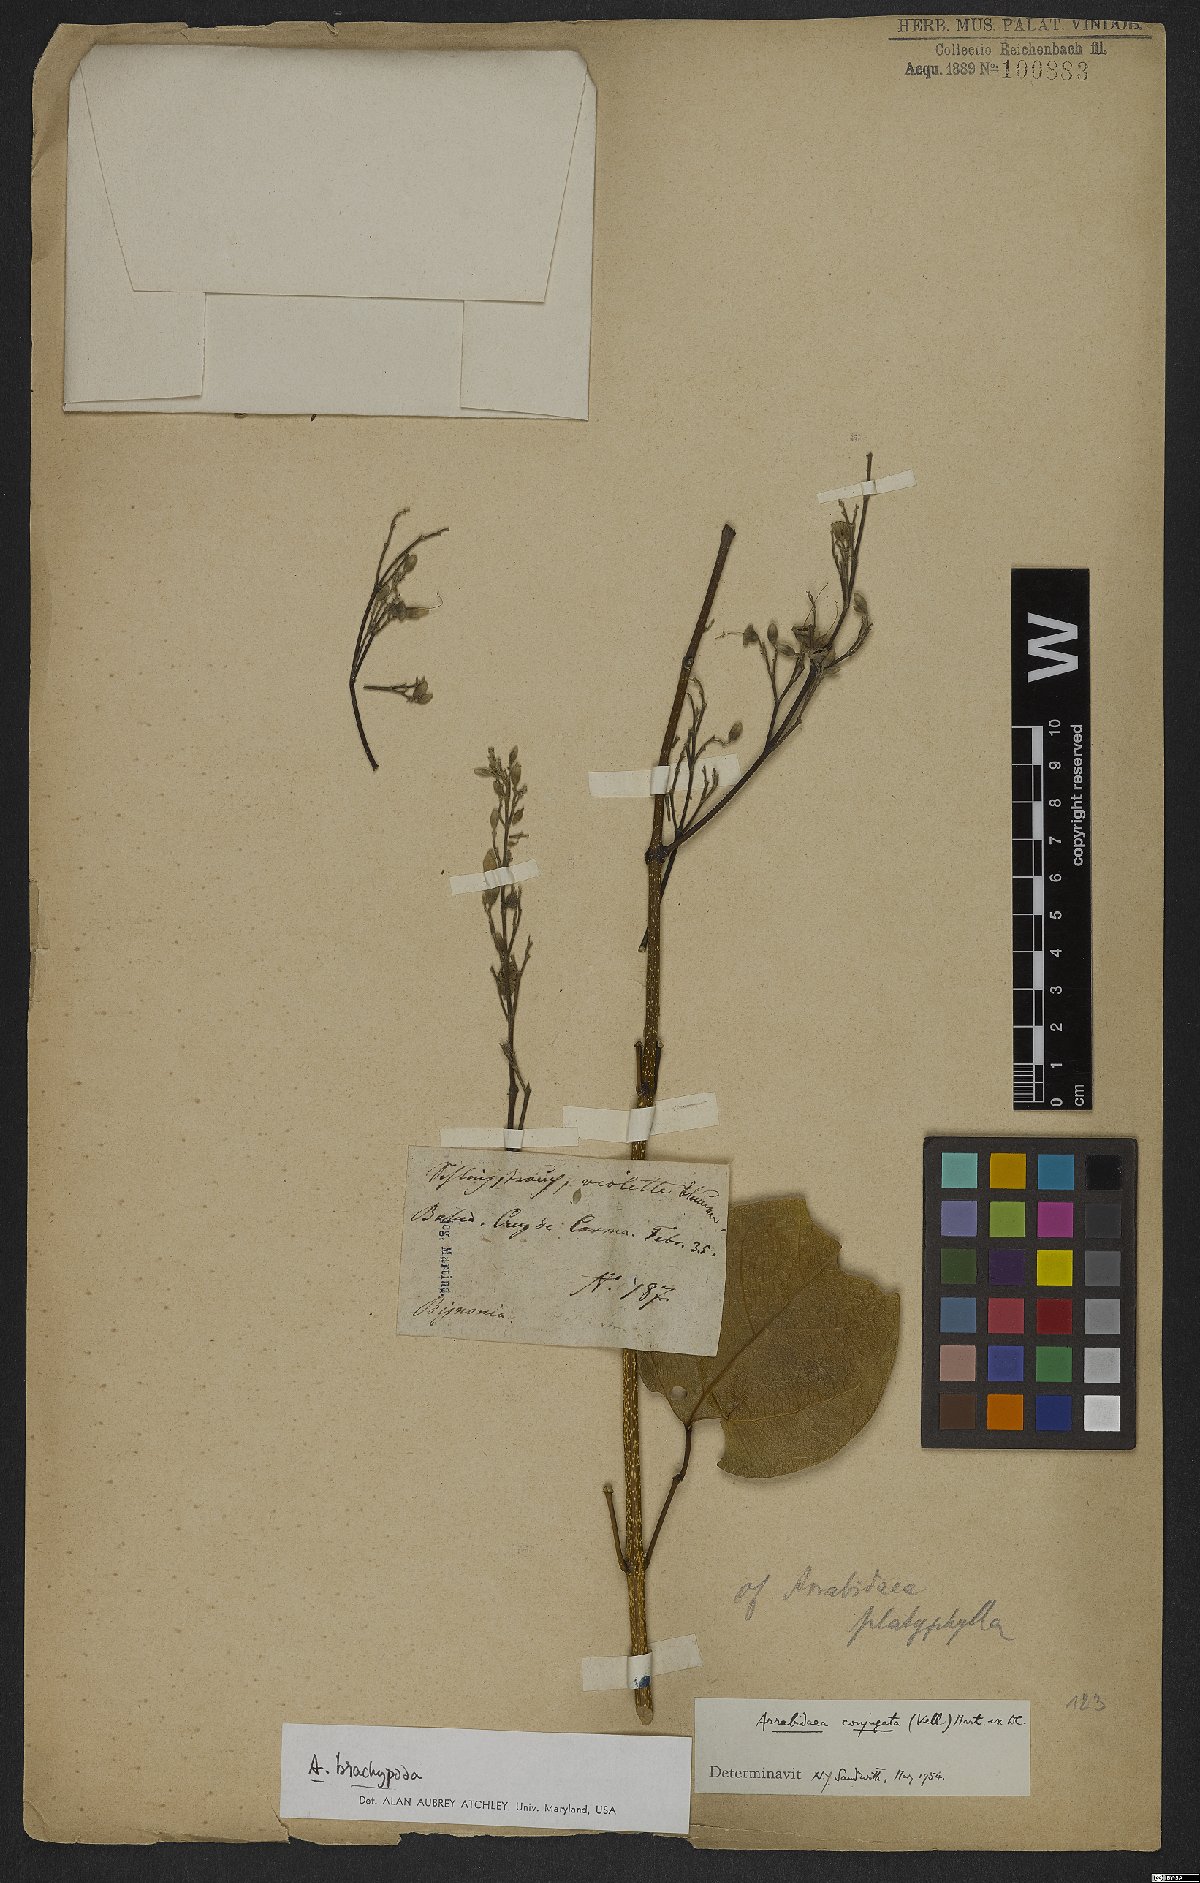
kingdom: Plantae
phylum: Tracheophyta
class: Magnoliopsida
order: Lamiales
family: Bignoniaceae
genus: Fridericia
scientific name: Fridericia platyphylla
